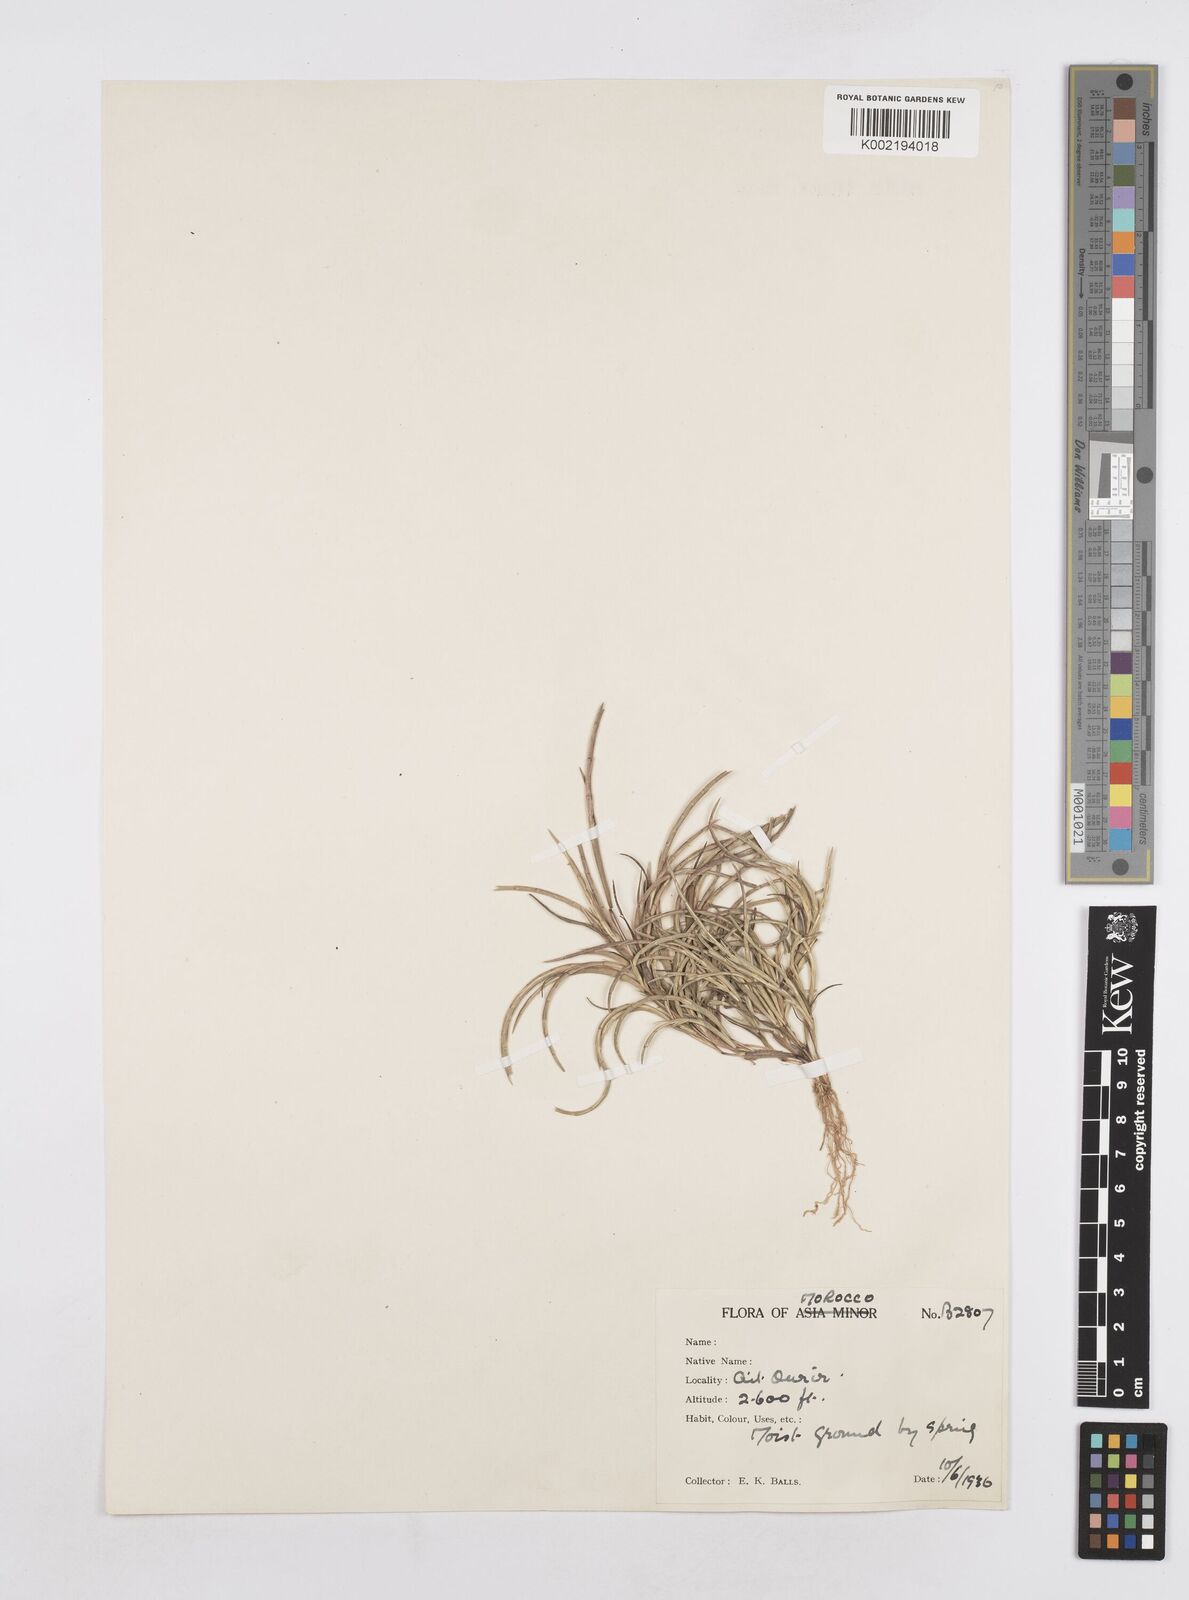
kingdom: Plantae
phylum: Tracheophyta
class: Liliopsida
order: Poales
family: Poaceae
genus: Parapholis
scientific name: Parapholis incurva
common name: Curved sicklegrass
